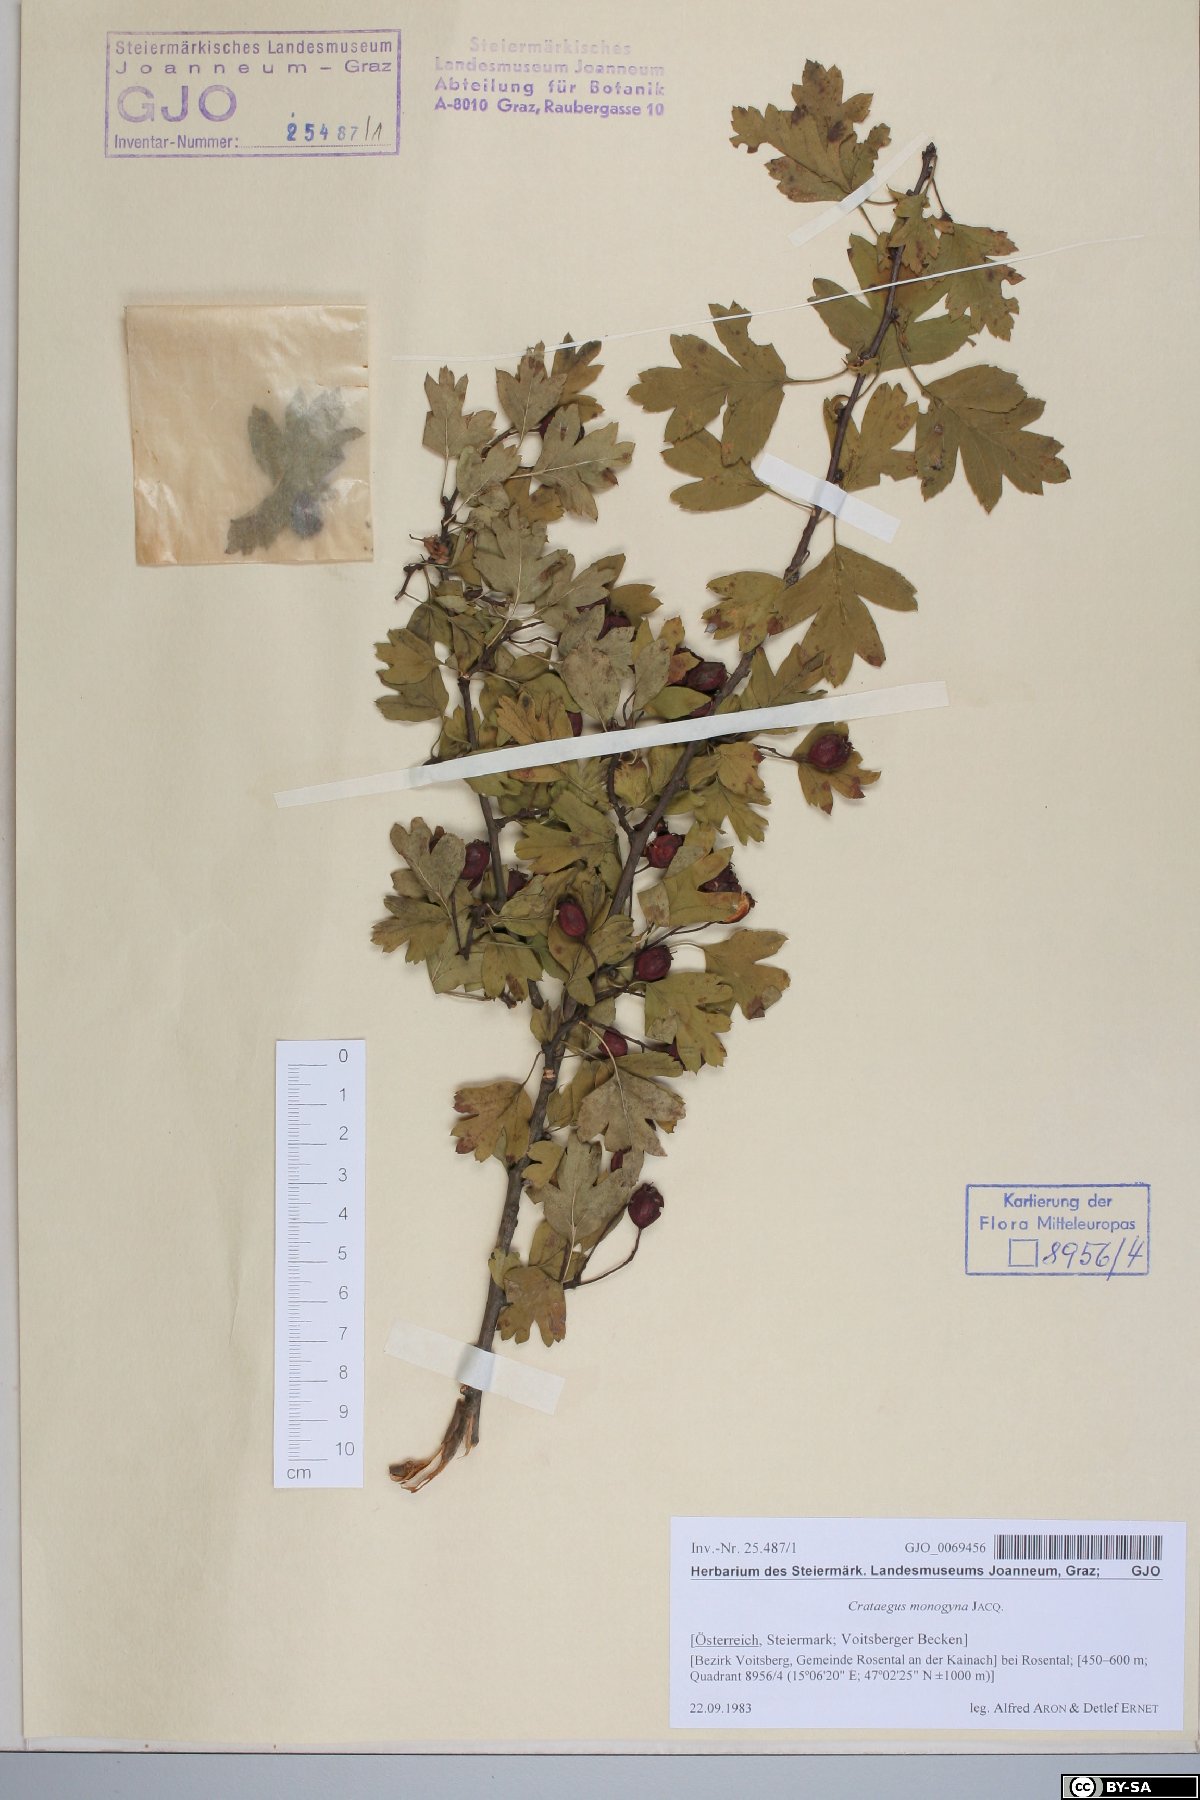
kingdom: Plantae
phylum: Tracheophyta
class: Magnoliopsida
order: Rosales
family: Rosaceae
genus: Crataegus
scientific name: Crataegus monogyna
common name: Hawthorn
